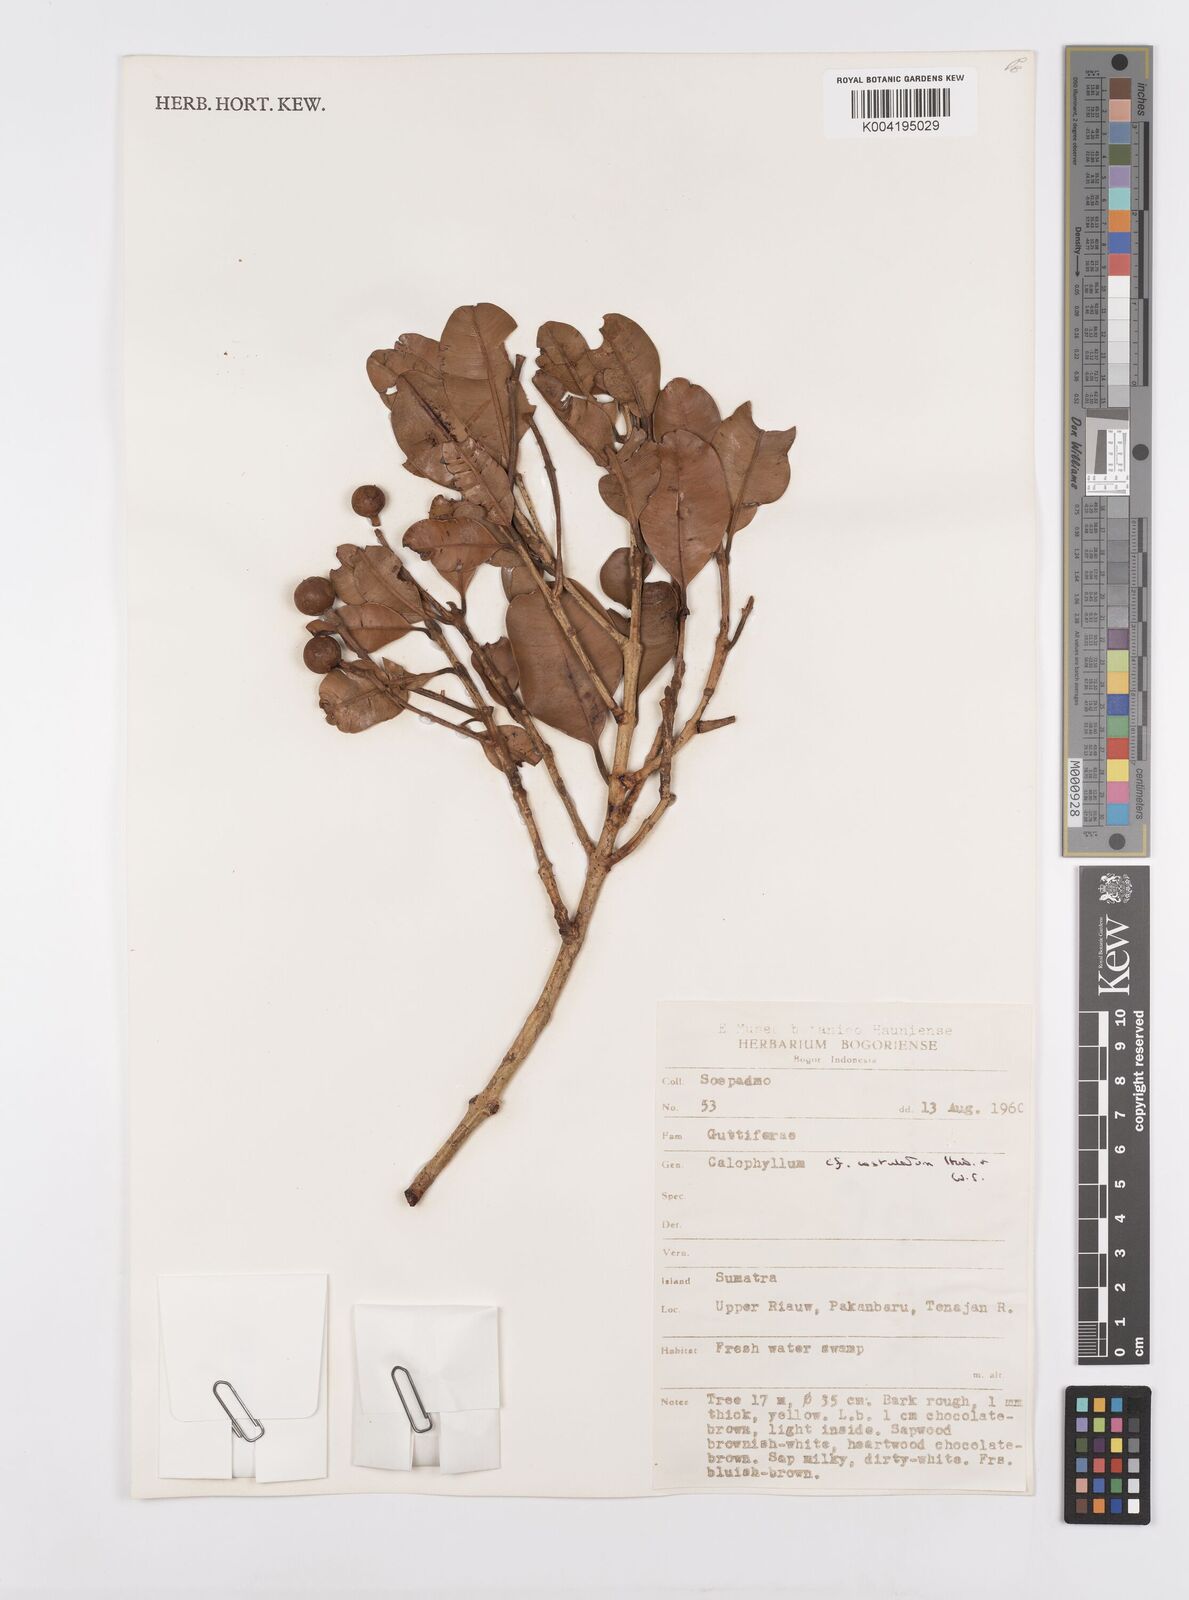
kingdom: Plantae
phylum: Tracheophyta
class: Magnoliopsida
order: Malpighiales
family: Calophyllaceae
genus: Calophyllum
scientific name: Calophyllum costulatum
